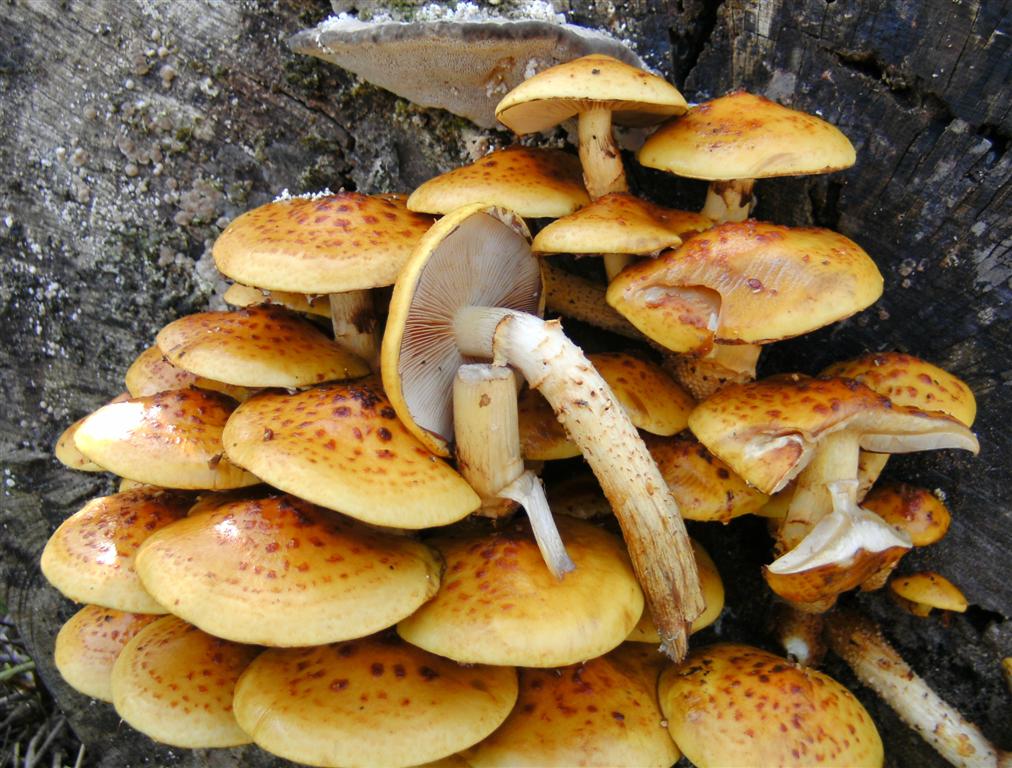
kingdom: Fungi
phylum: Basidiomycota
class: Agaricomycetes
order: Agaricales
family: Strophariaceae
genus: Pholiota
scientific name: Pholiota adiposa
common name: højtsiddende skælhat
